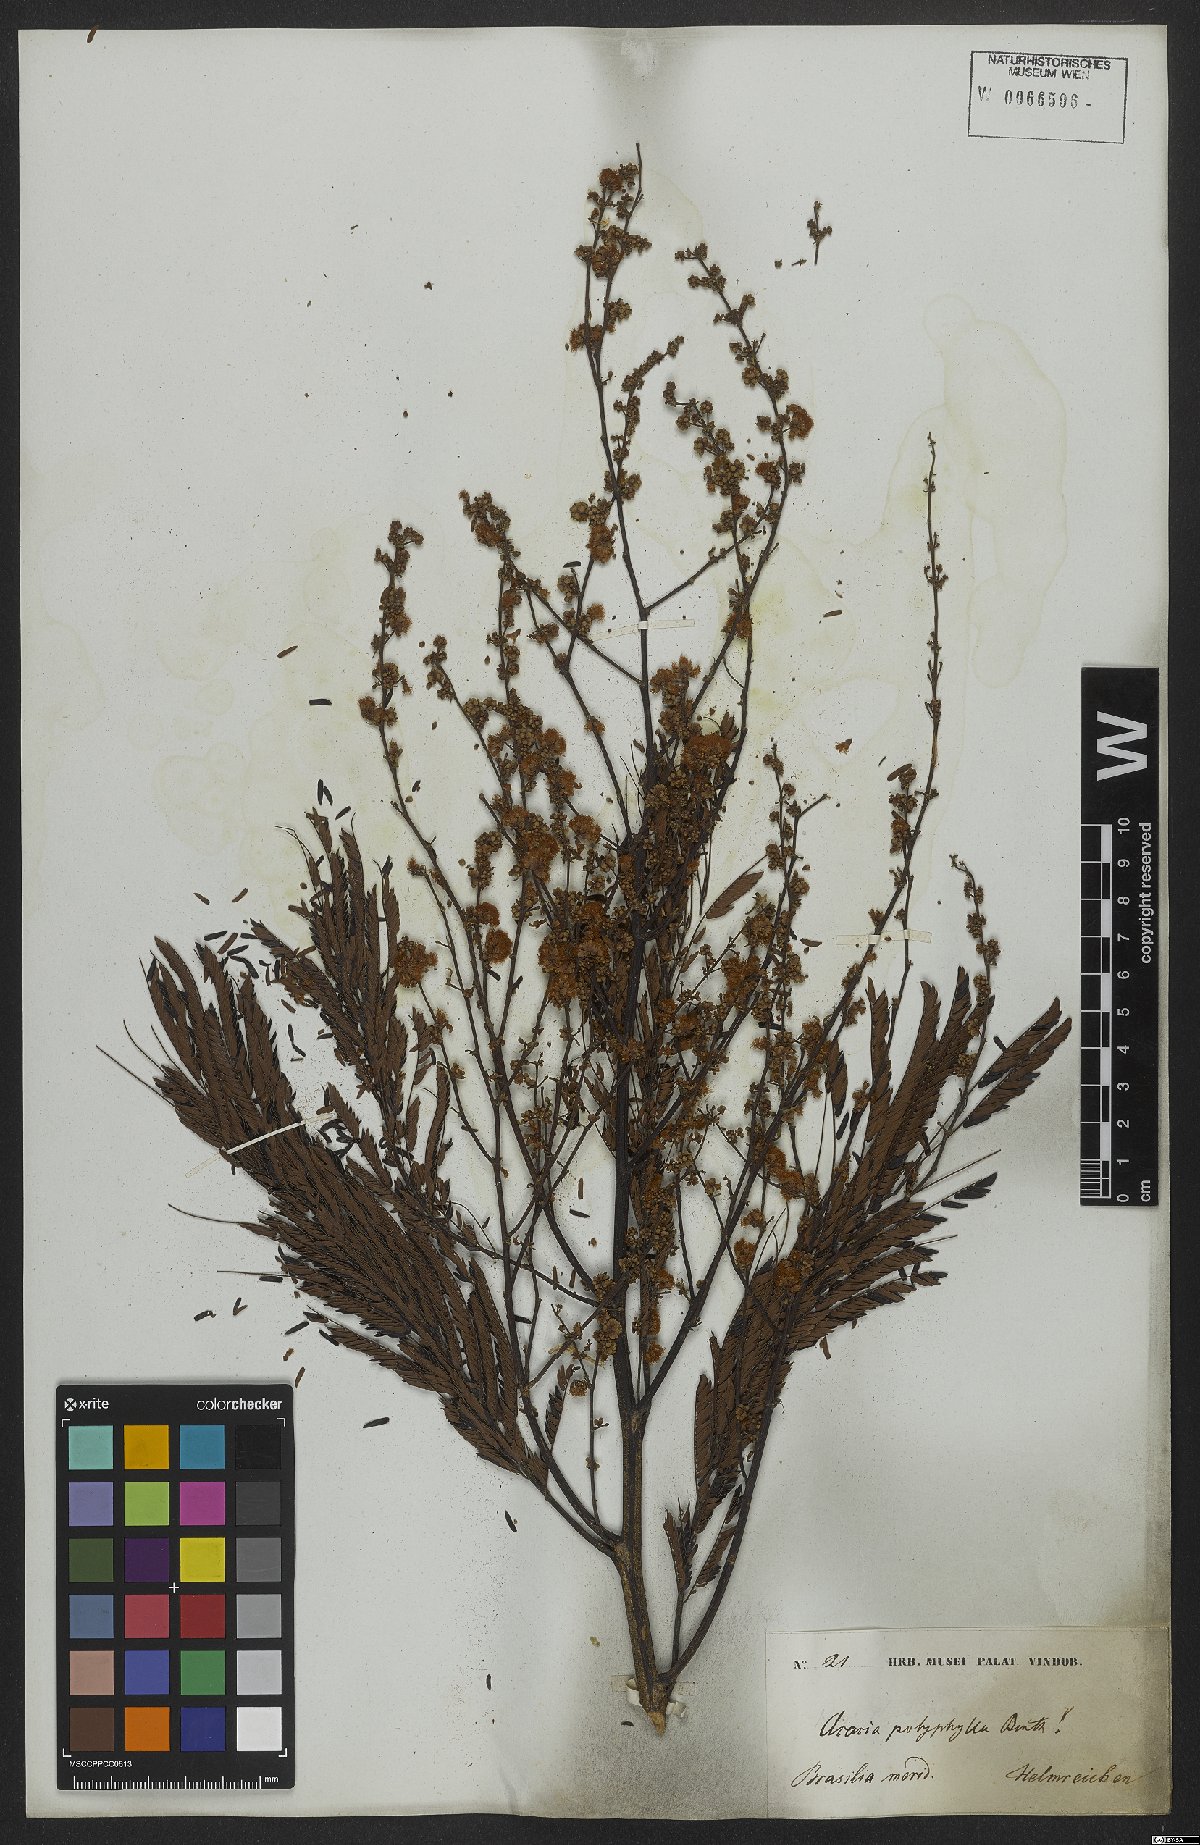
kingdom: Plantae
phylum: Tracheophyta
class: Magnoliopsida
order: Fabales
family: Fabaceae
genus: Senegalia
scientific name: Senegalia polyphylla
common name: White-tamarind
